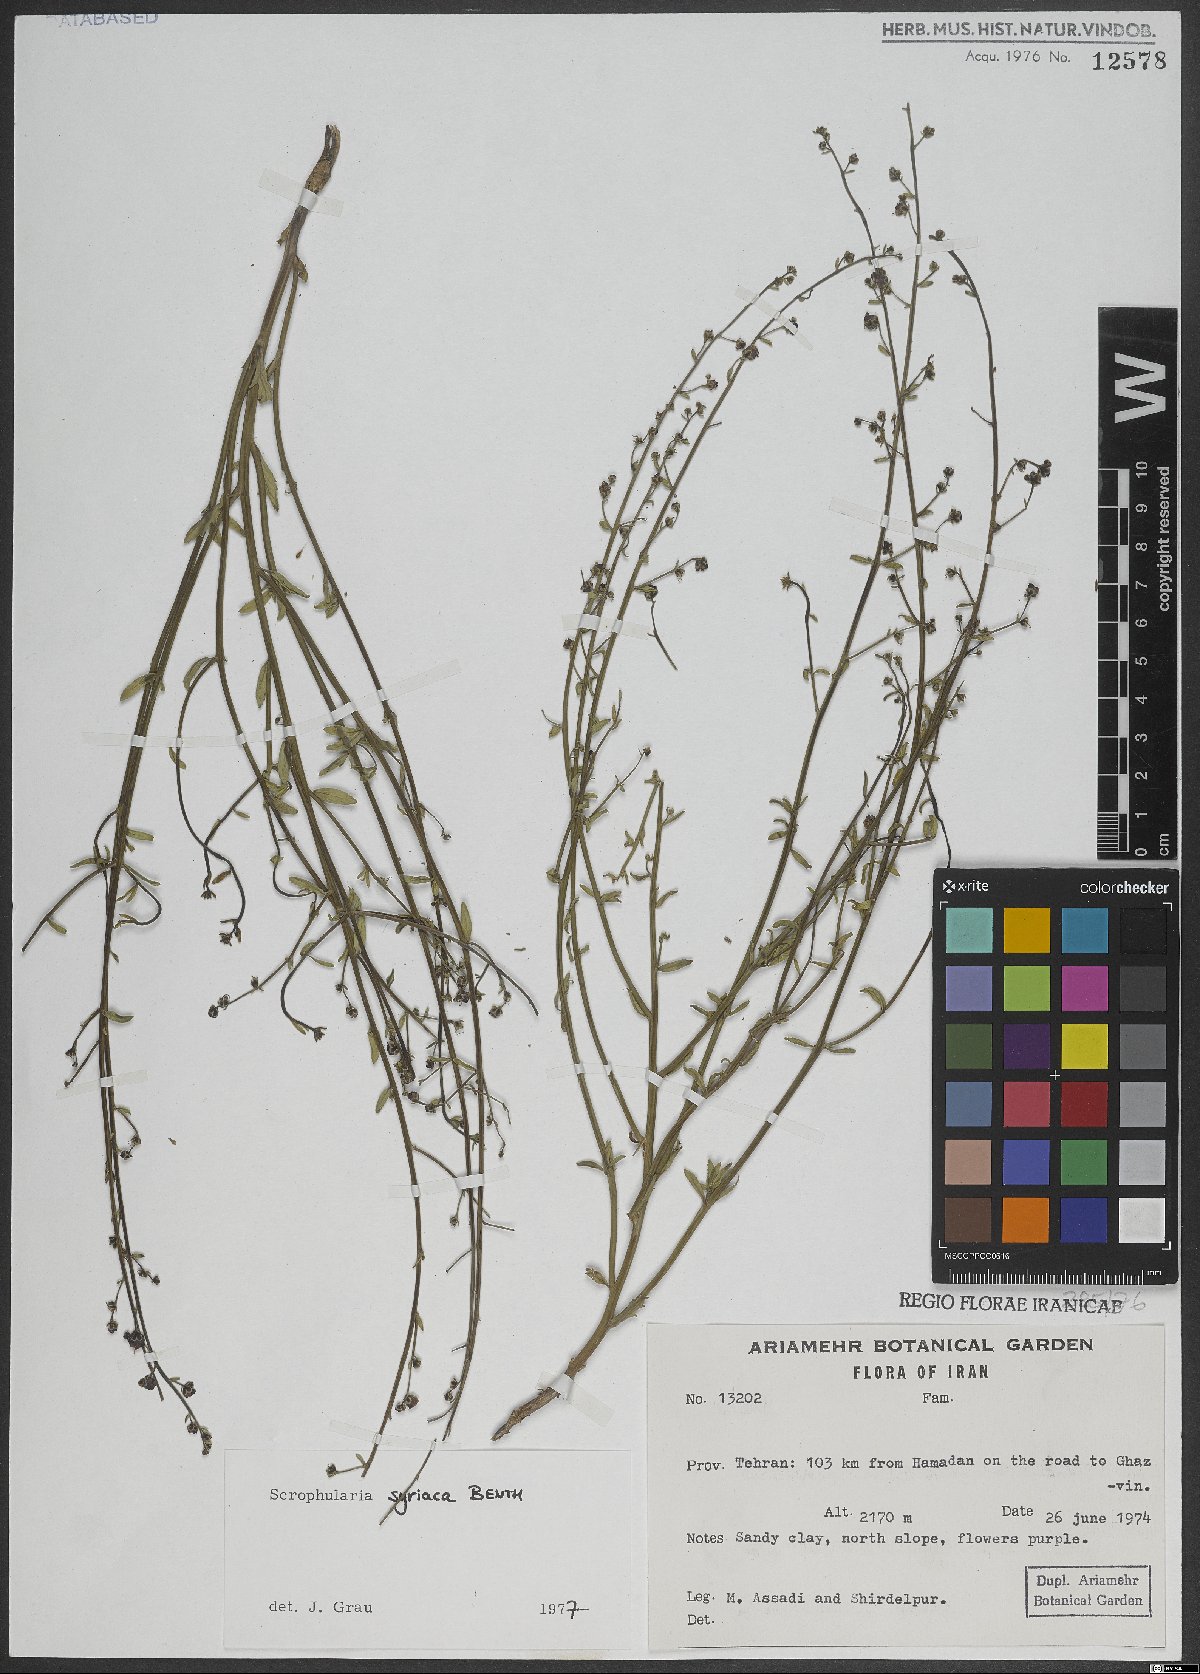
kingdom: Plantae
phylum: Tracheophyta
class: Magnoliopsida
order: Lamiales
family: Scrophulariaceae
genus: Scrophularia
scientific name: Scrophularia hypericifolia
